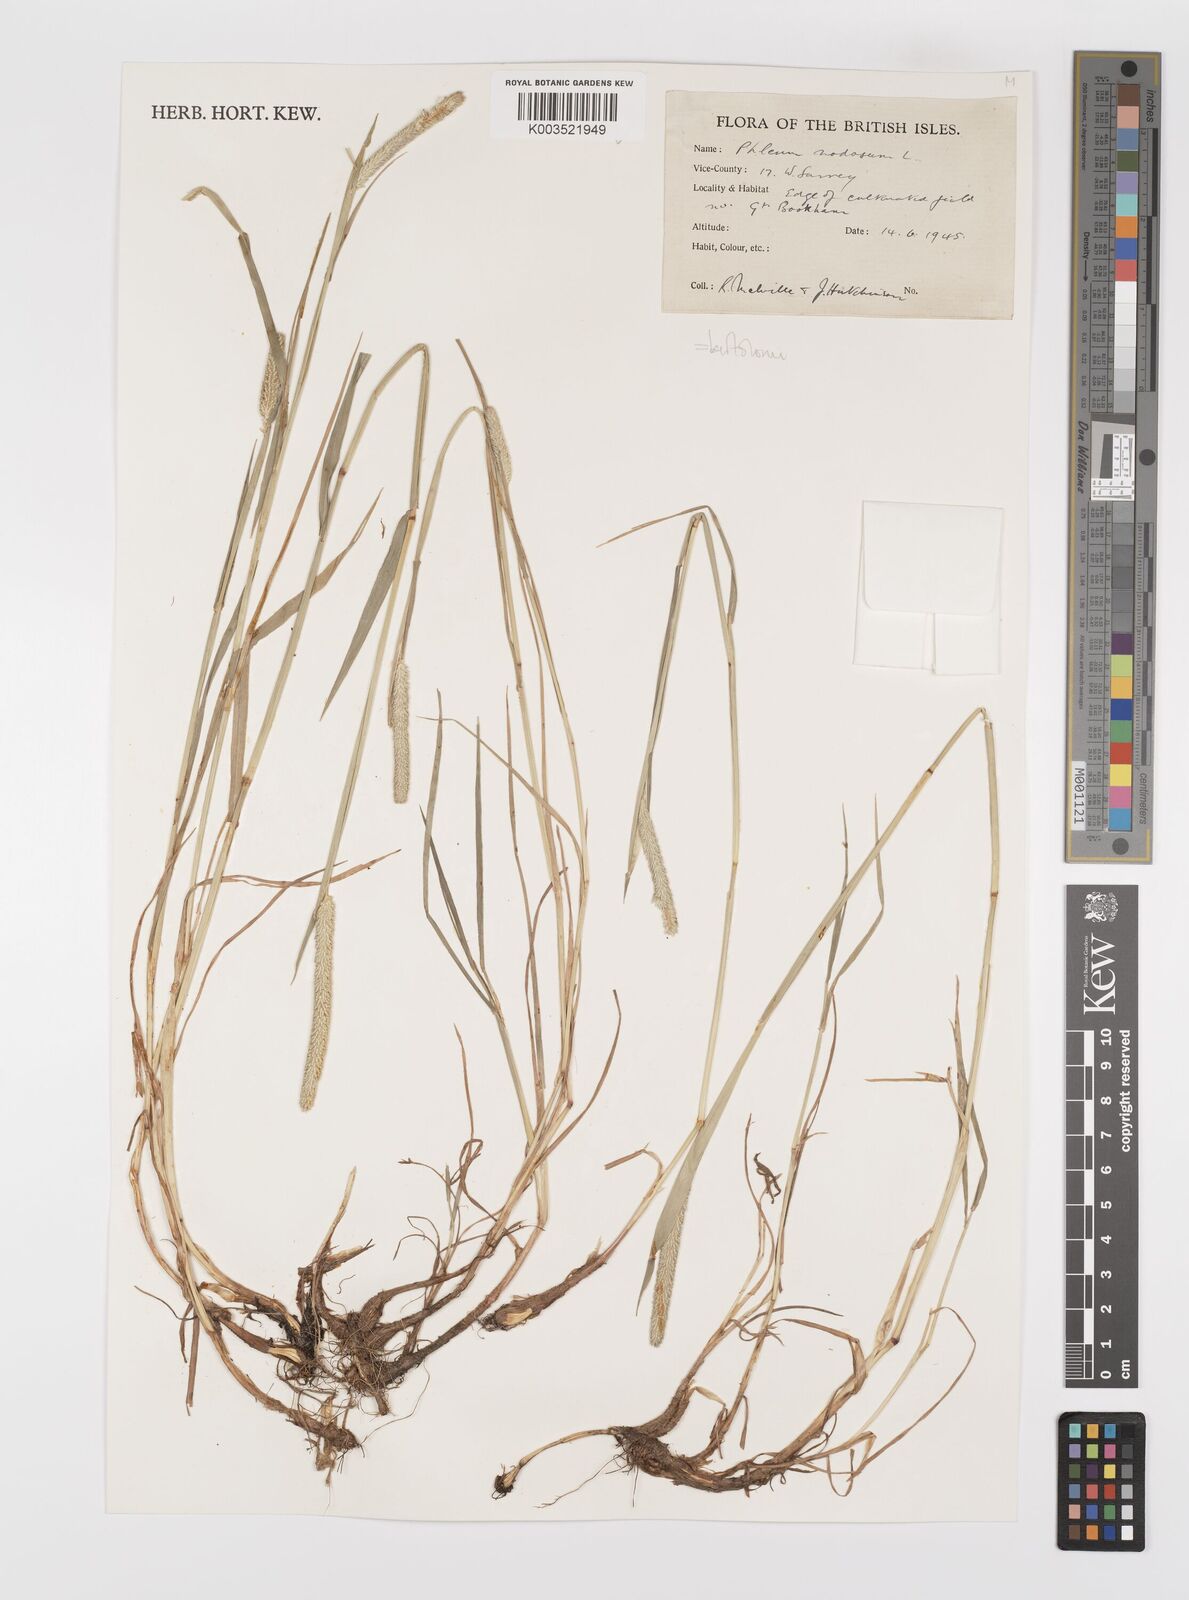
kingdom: Plantae
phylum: Tracheophyta
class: Liliopsida
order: Poales
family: Poaceae
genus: Phleum
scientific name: Phleum bertolonii
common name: Smaller cat's-tail
